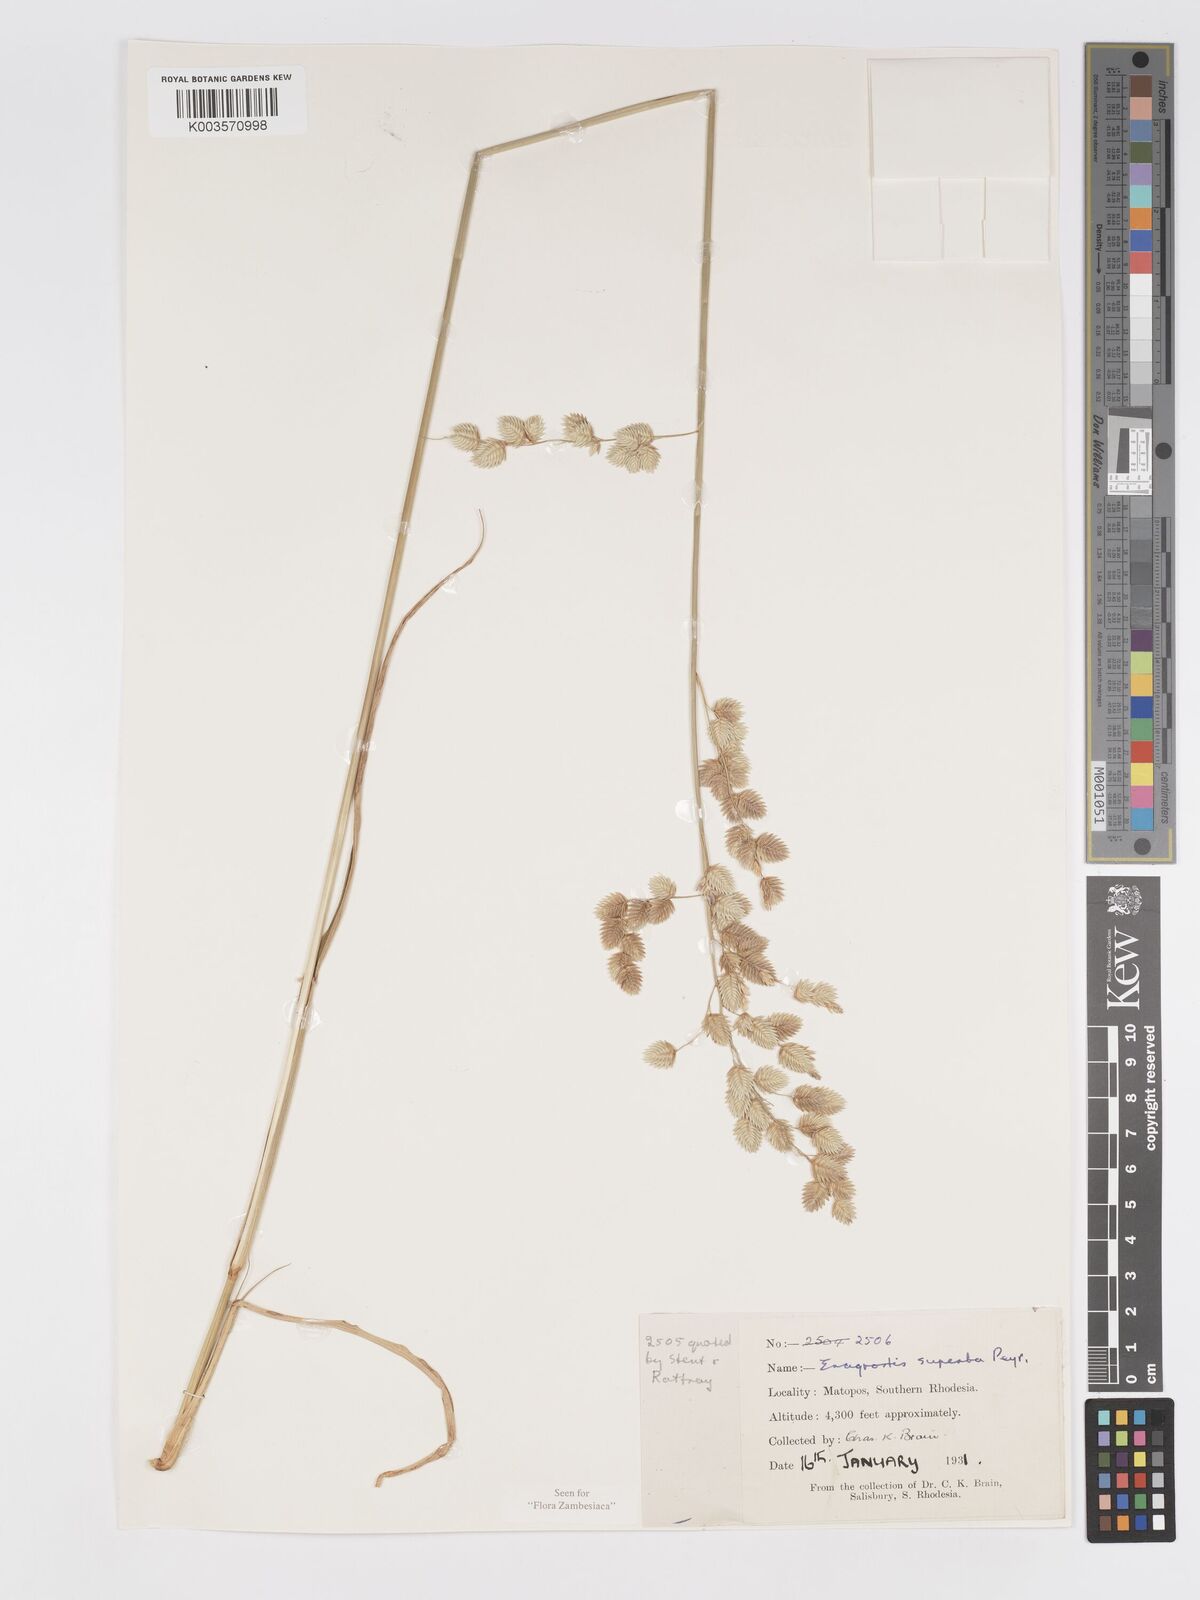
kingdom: Plantae
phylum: Tracheophyta
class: Liliopsida
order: Poales
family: Poaceae
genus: Eragrostis
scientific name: Eragrostis superba
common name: Wilman lovegrass
